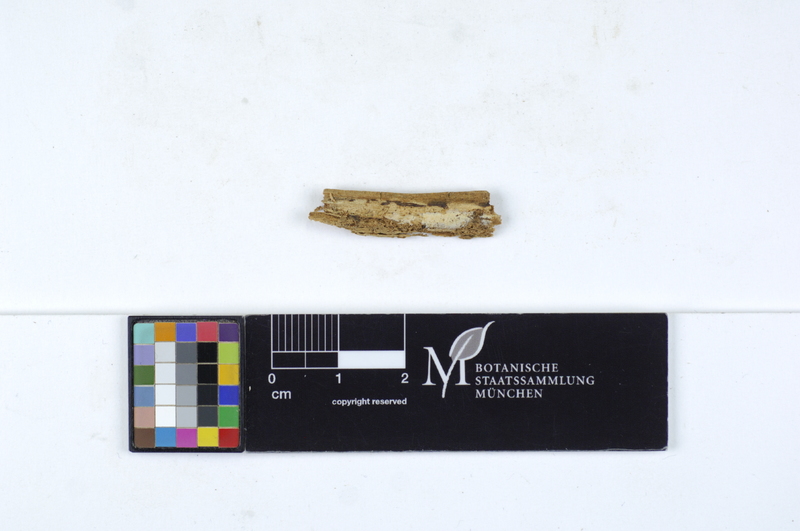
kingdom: Fungi
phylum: Basidiomycota
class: Agaricomycetes
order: Amylocorticiales
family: Amylocorticiaceae
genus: Ceraceomyces
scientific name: Ceraceomyces eludens
